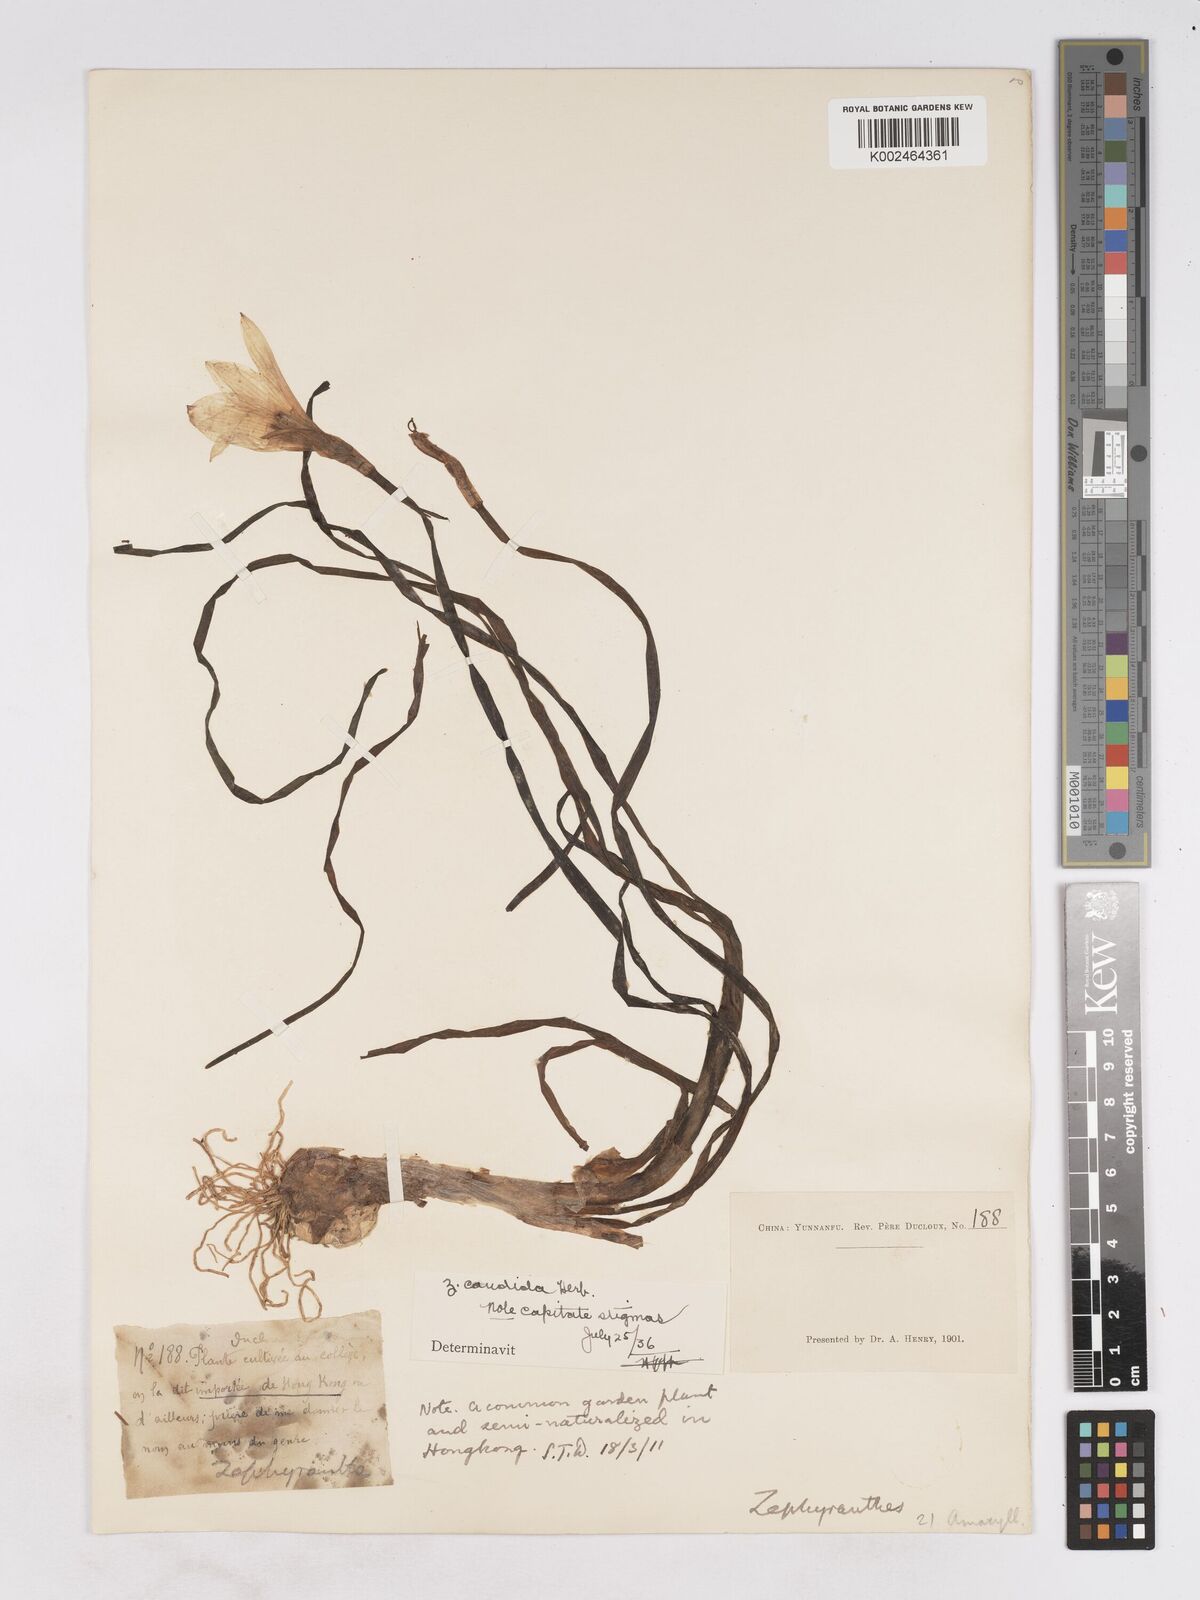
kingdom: Plantae
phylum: Tracheophyta
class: Liliopsida
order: Asparagales
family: Amaryllidaceae
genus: Zephyranthes
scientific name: Zephyranthes candida
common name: Autumn zephyrlily
